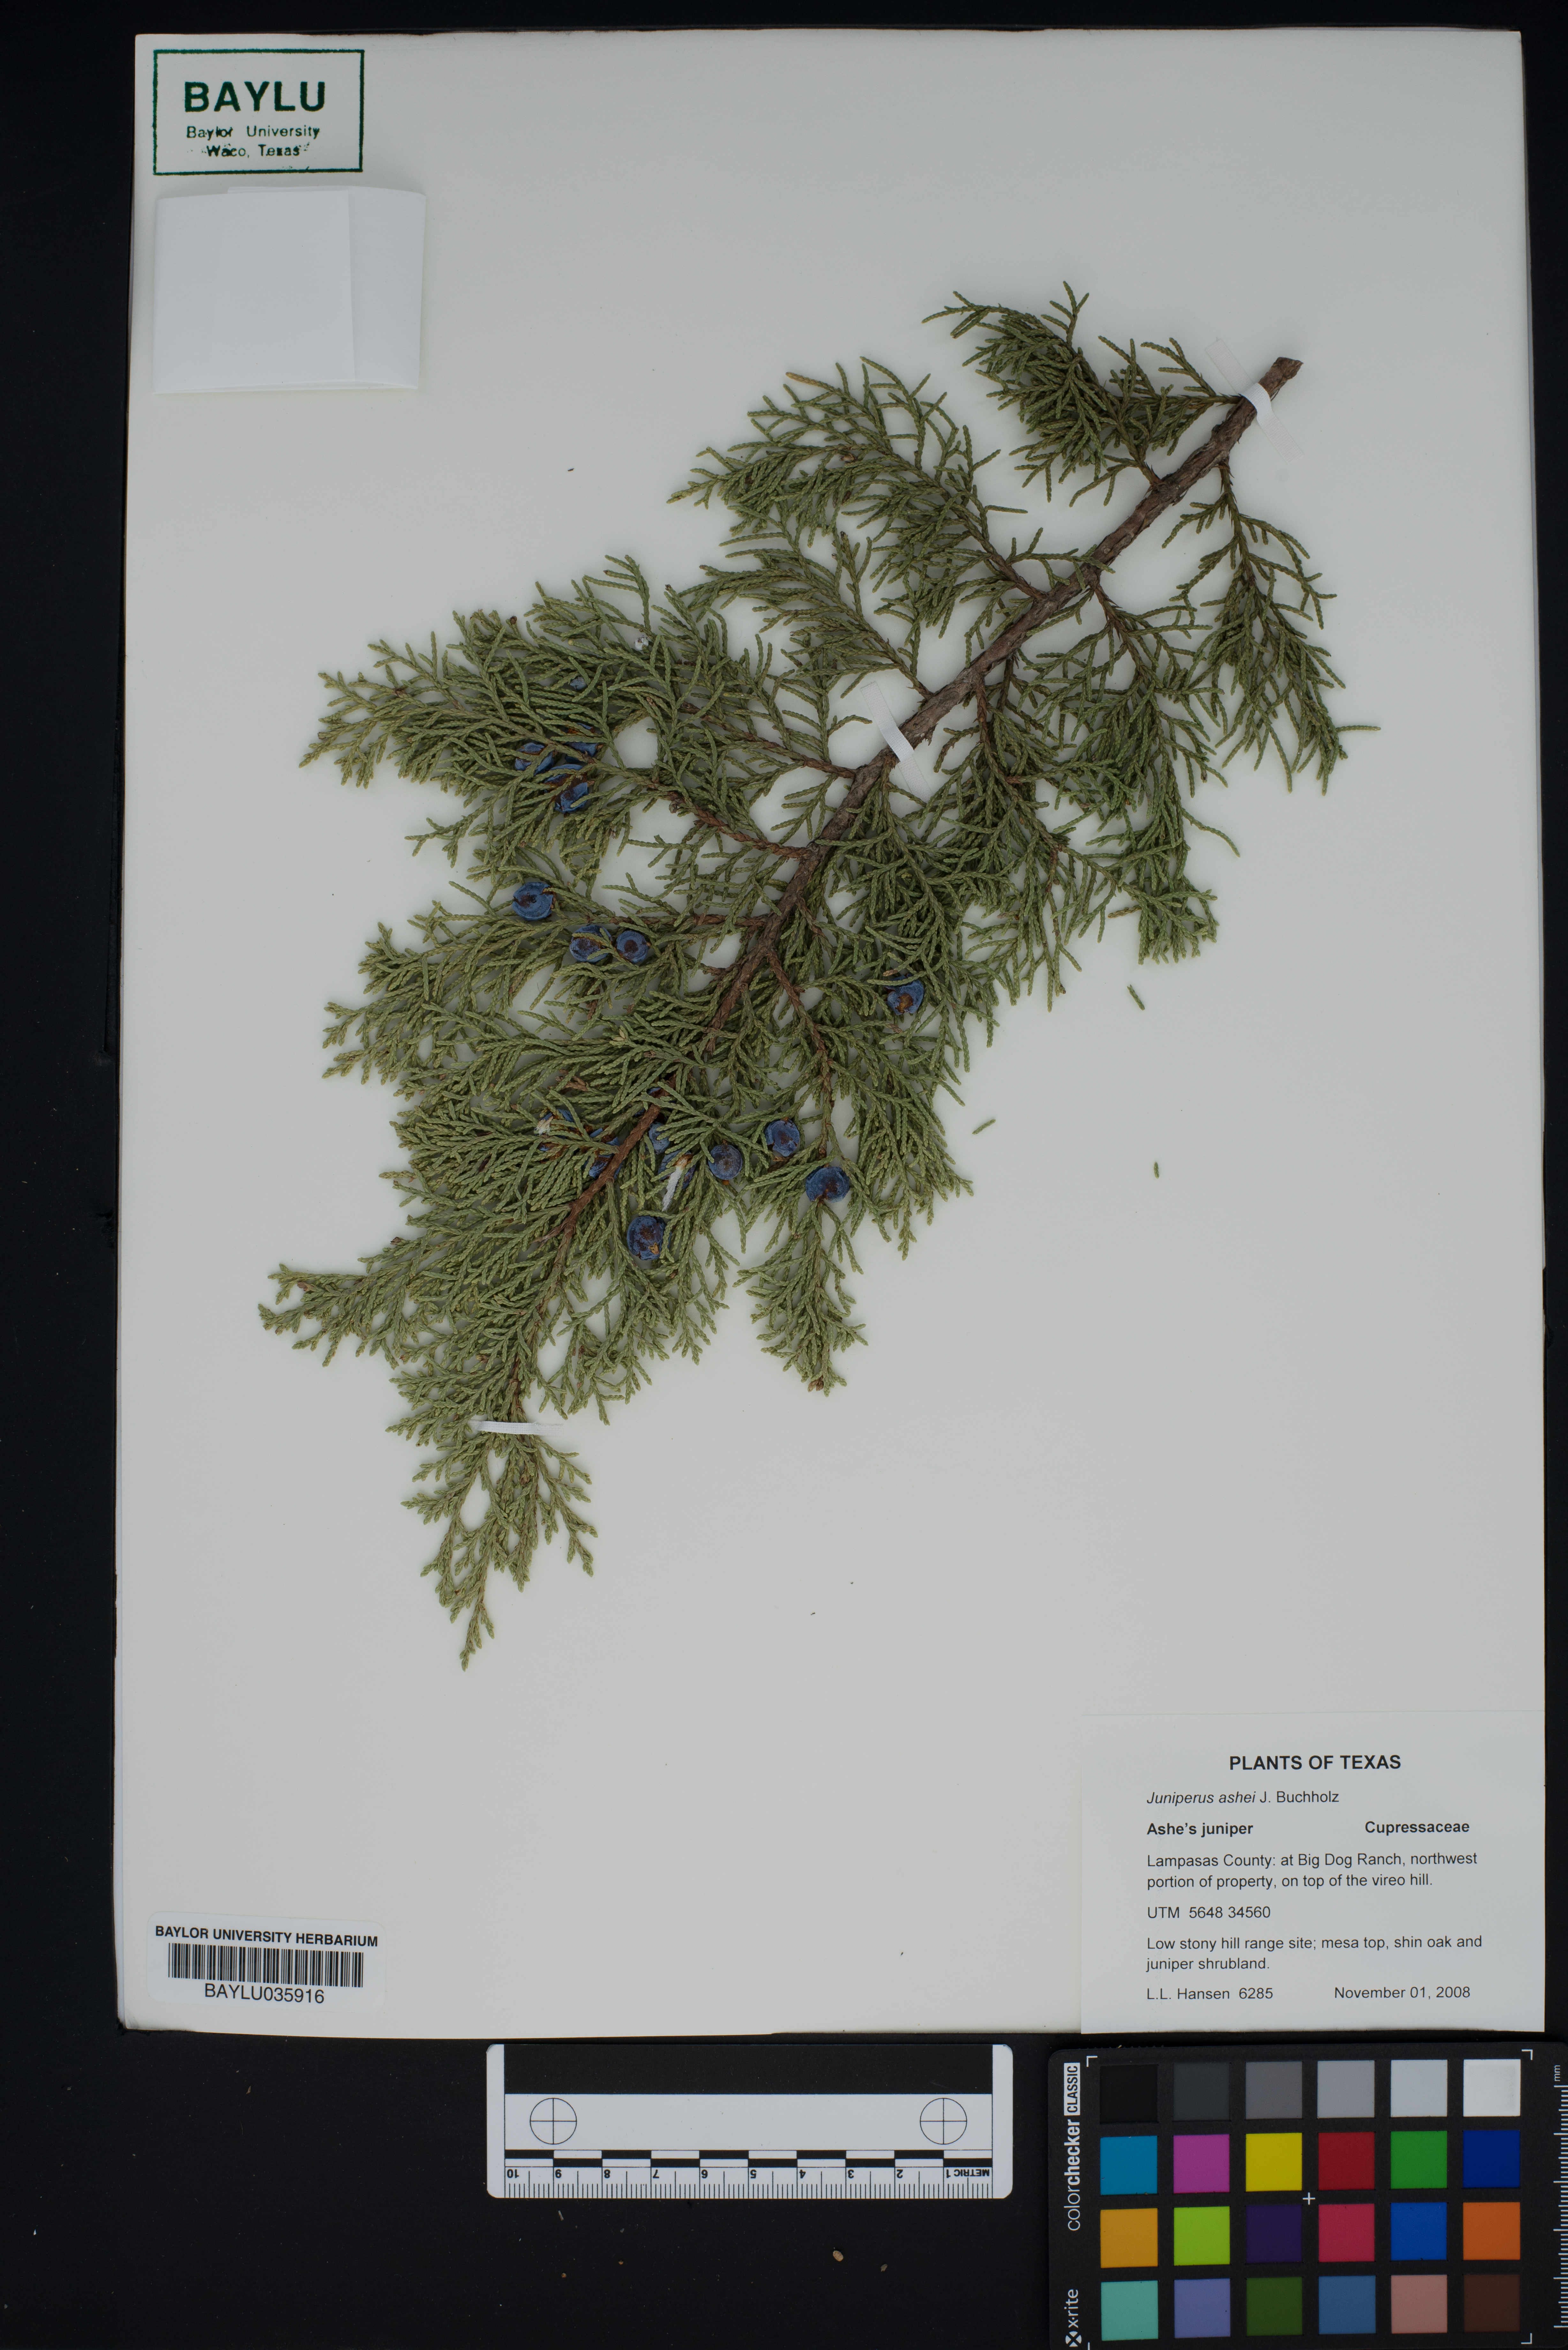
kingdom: Plantae
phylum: Tracheophyta
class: Pinopsida
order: Pinales
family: Cupressaceae
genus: Juniperus
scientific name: Juniperus ashei
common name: Mexican juniper
